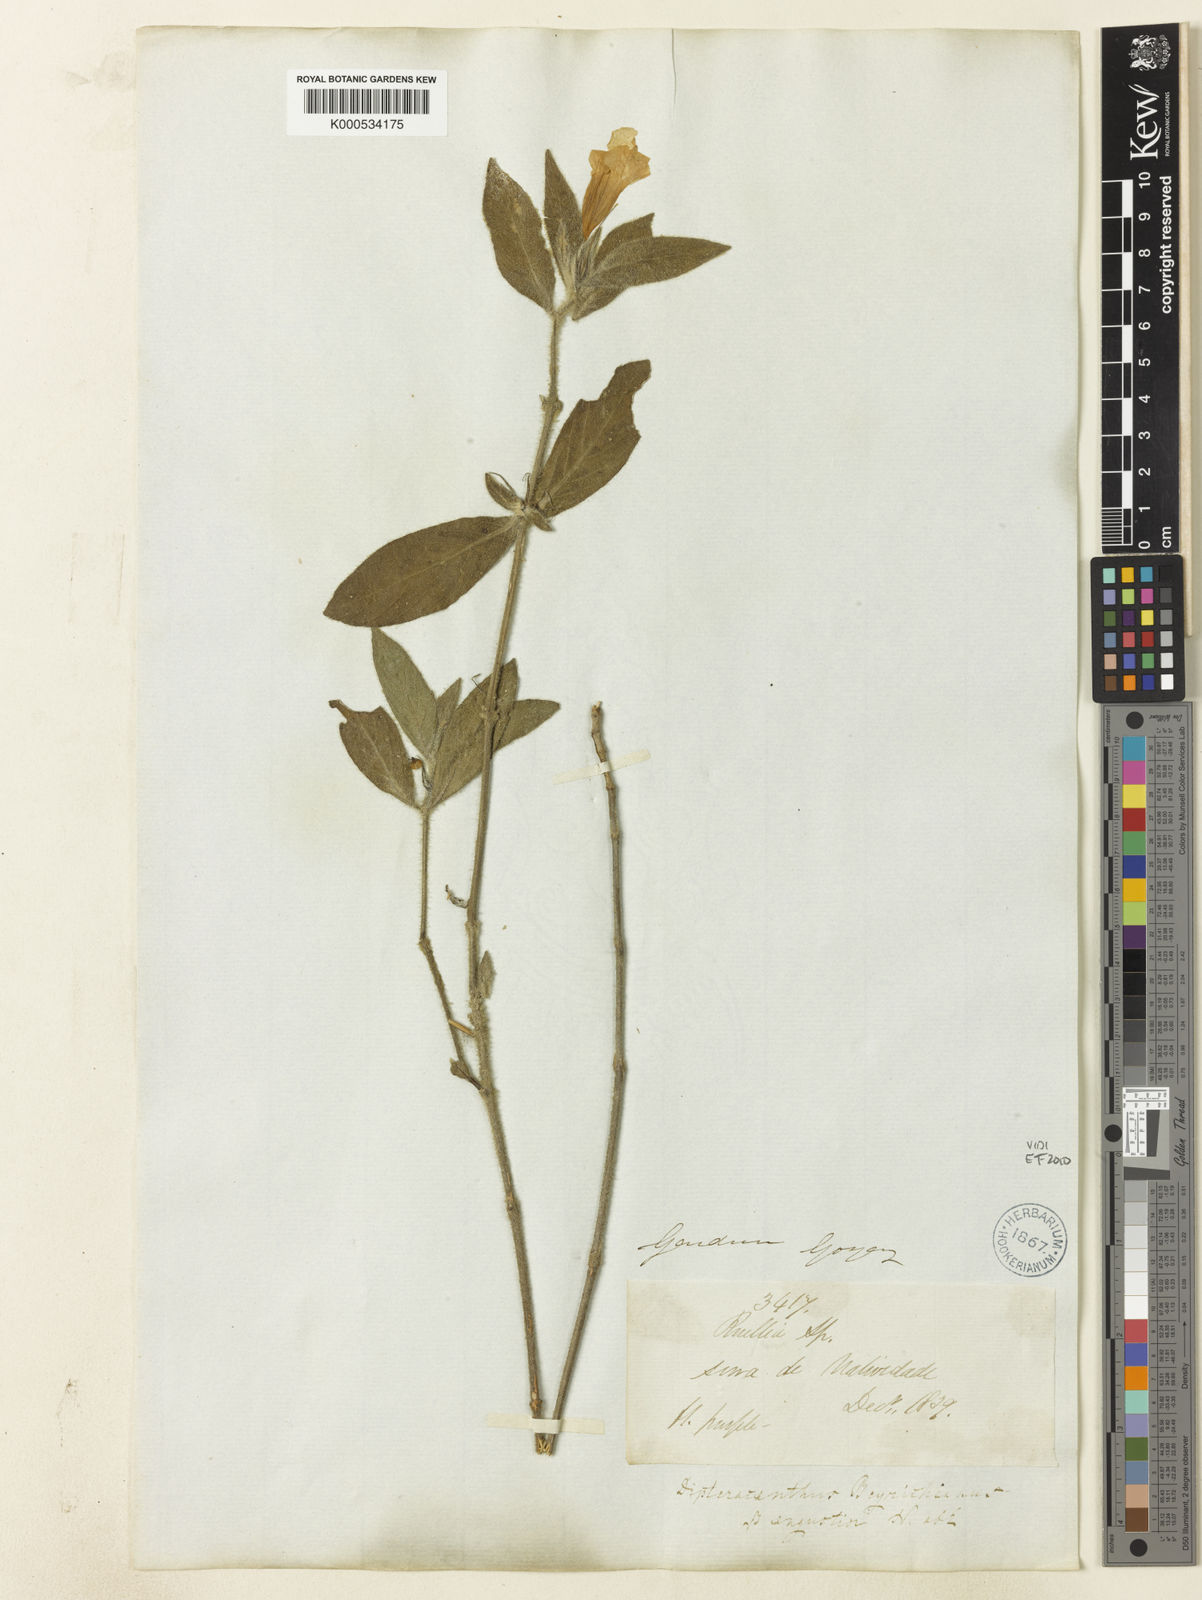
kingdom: Plantae
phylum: Tracheophyta
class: Magnoliopsida
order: Lamiales
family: Acanthaceae
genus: Ruellia
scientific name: Ruellia beyrichiana
